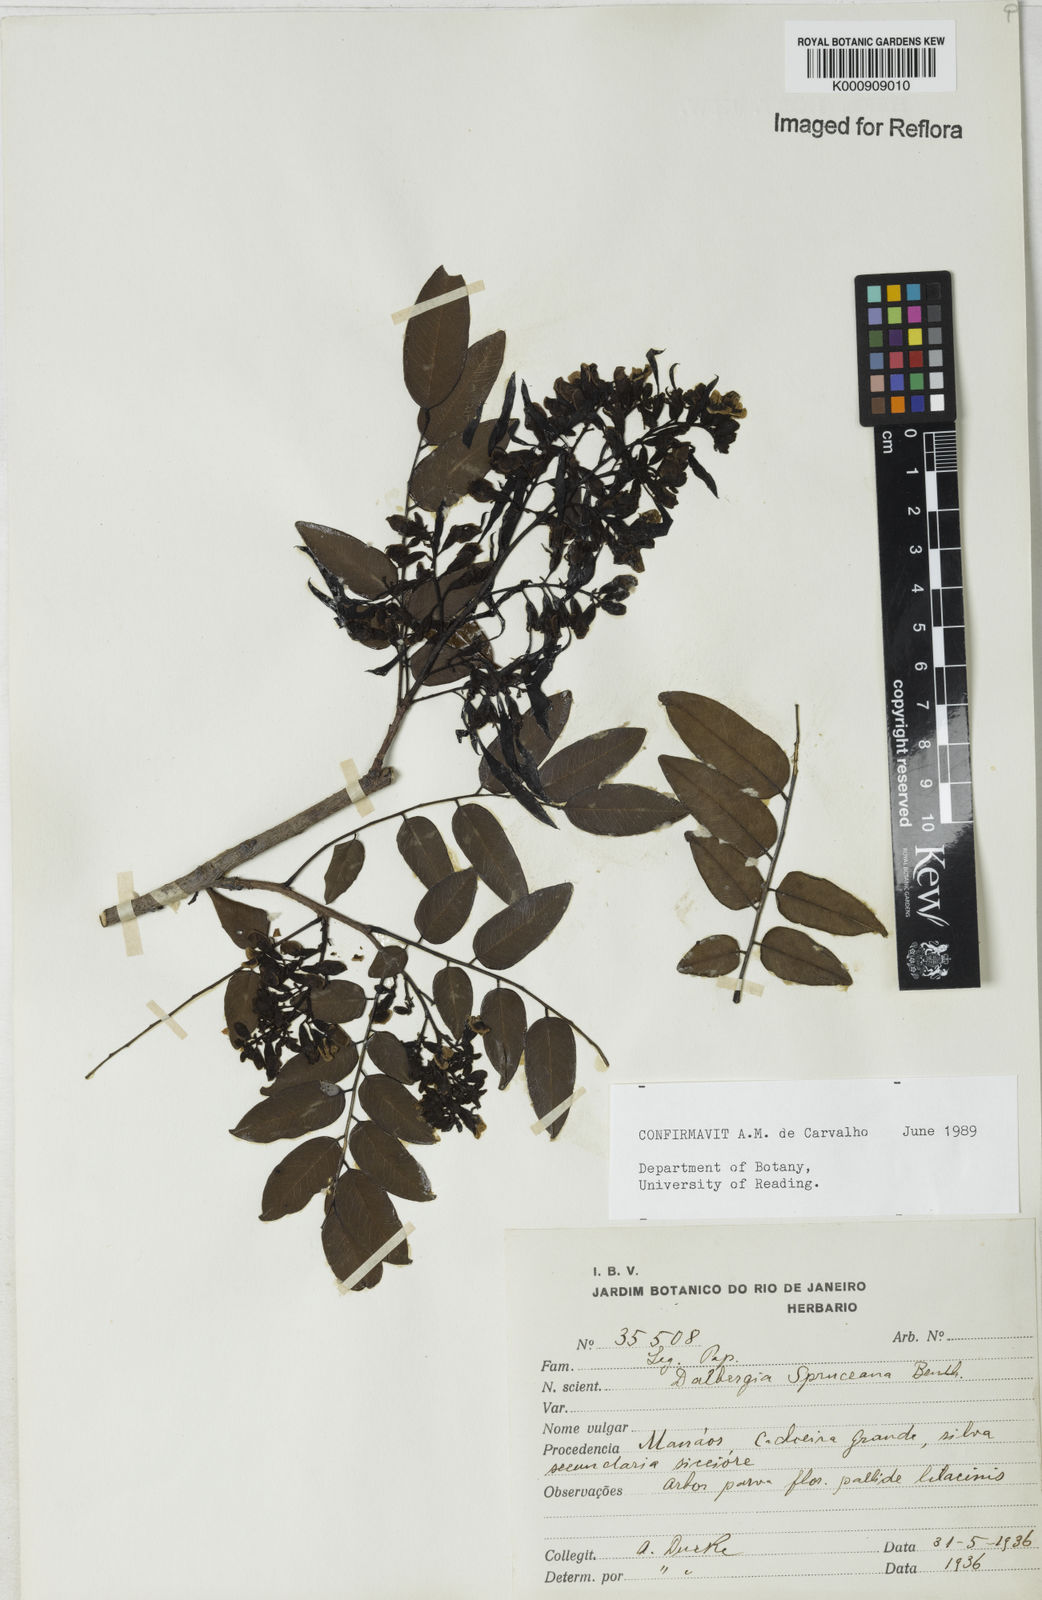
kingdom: Plantae
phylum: Tracheophyta
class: Magnoliopsida
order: Fabales
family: Fabaceae
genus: Dalbergia
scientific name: Dalbergia spruceana
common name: Amazon rosewood
